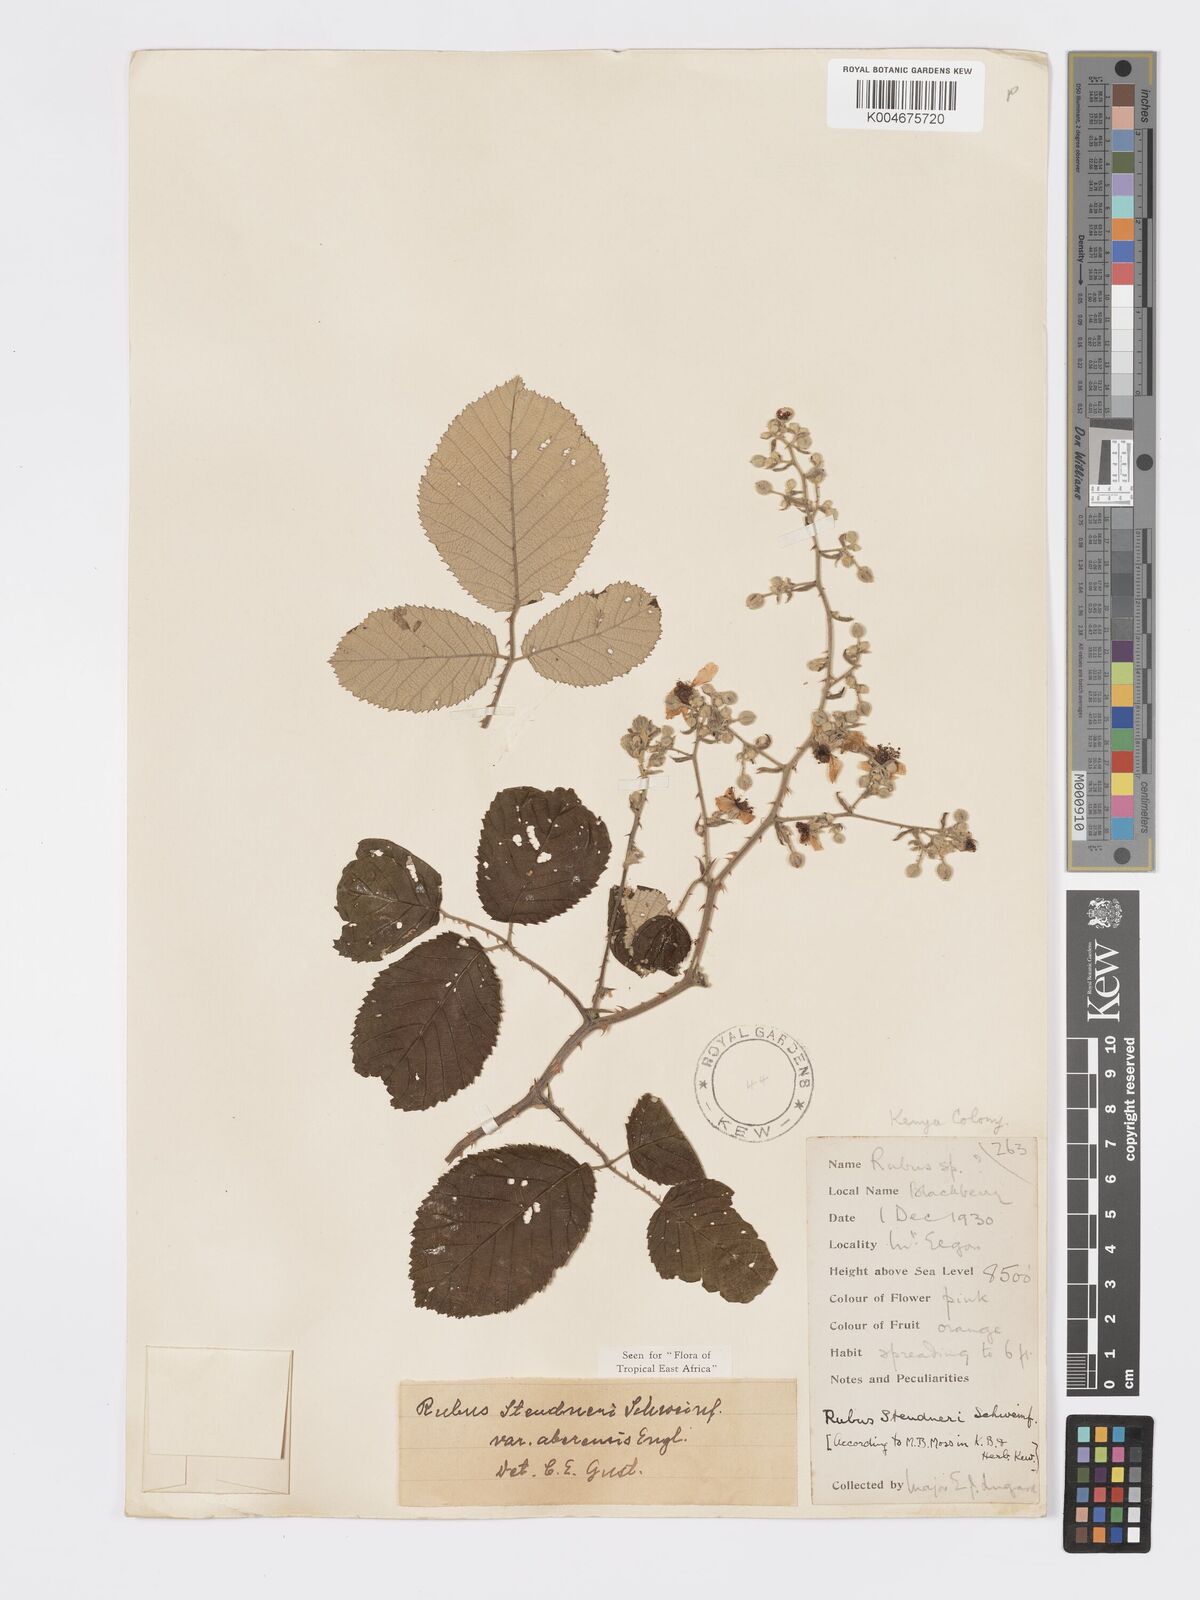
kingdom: Plantae
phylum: Tracheophyta
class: Magnoliopsida
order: Rosales
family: Rosaceae
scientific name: Rosaceae
